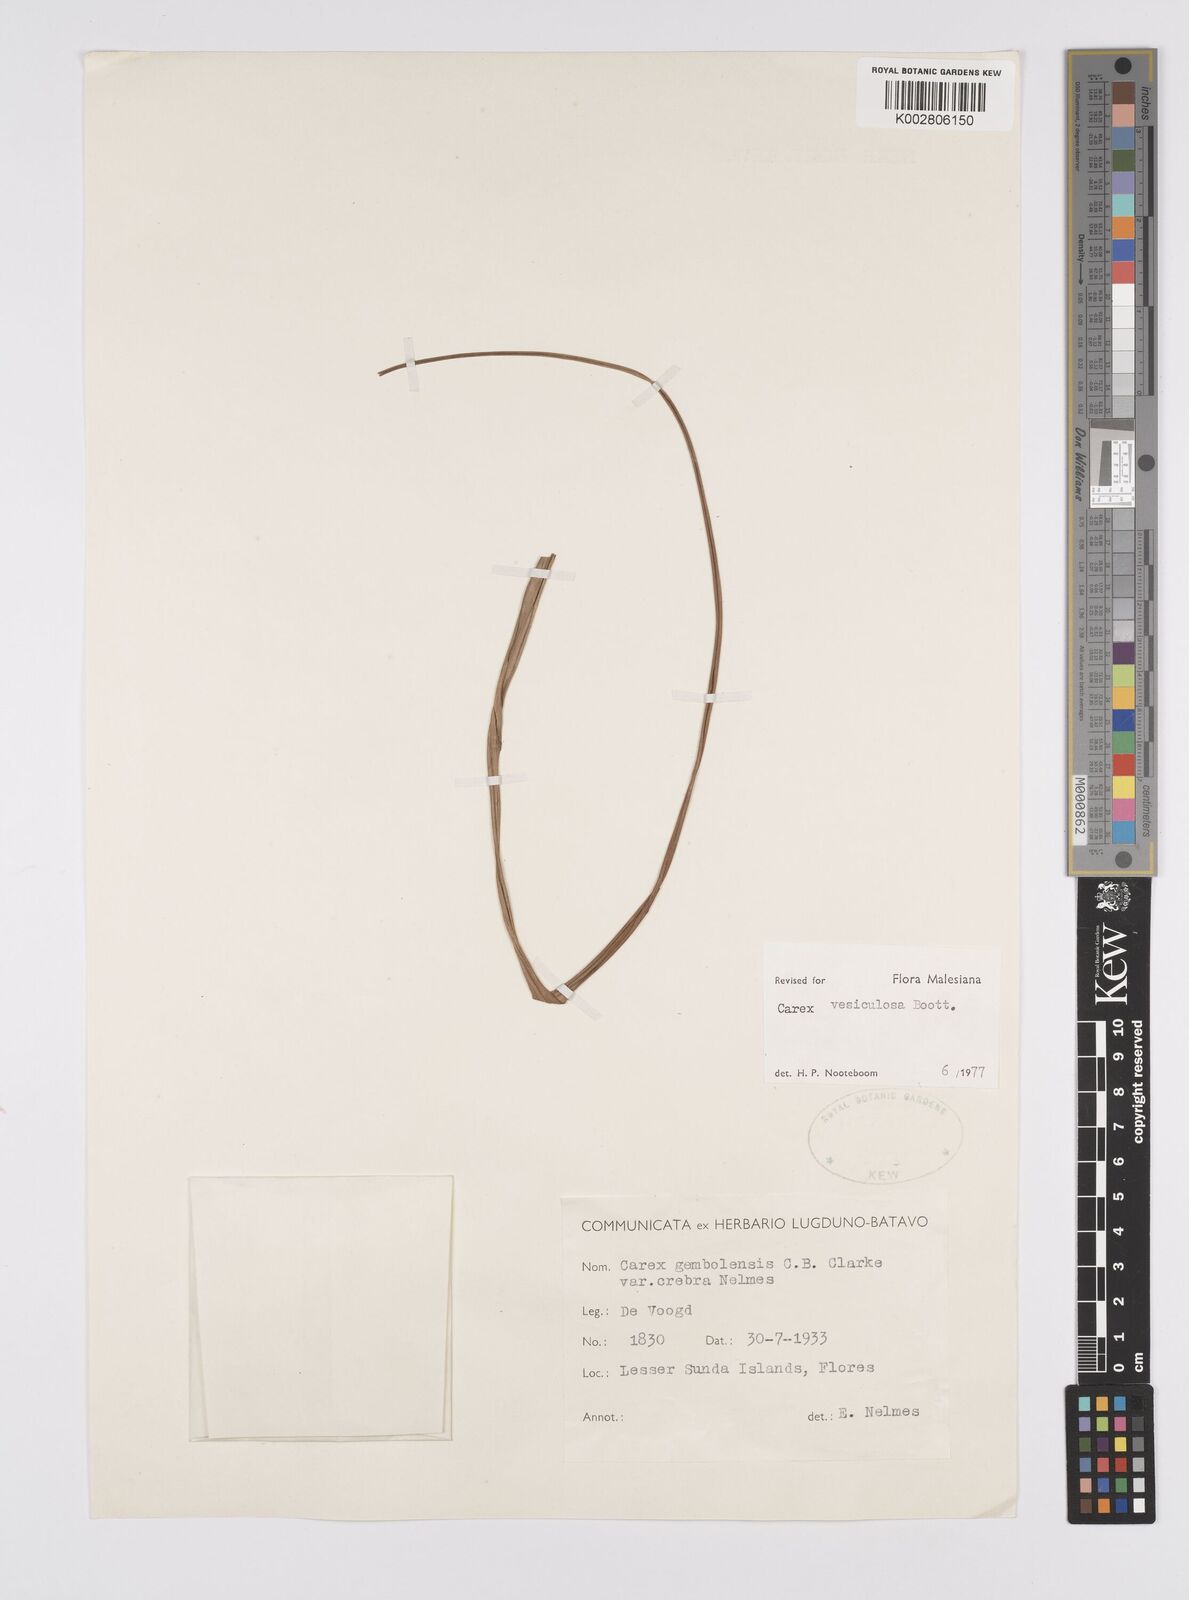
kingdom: Plantae
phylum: Tracheophyta
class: Liliopsida
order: Poales
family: Cyperaceae
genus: Carex
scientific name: Carex vesiculosa
